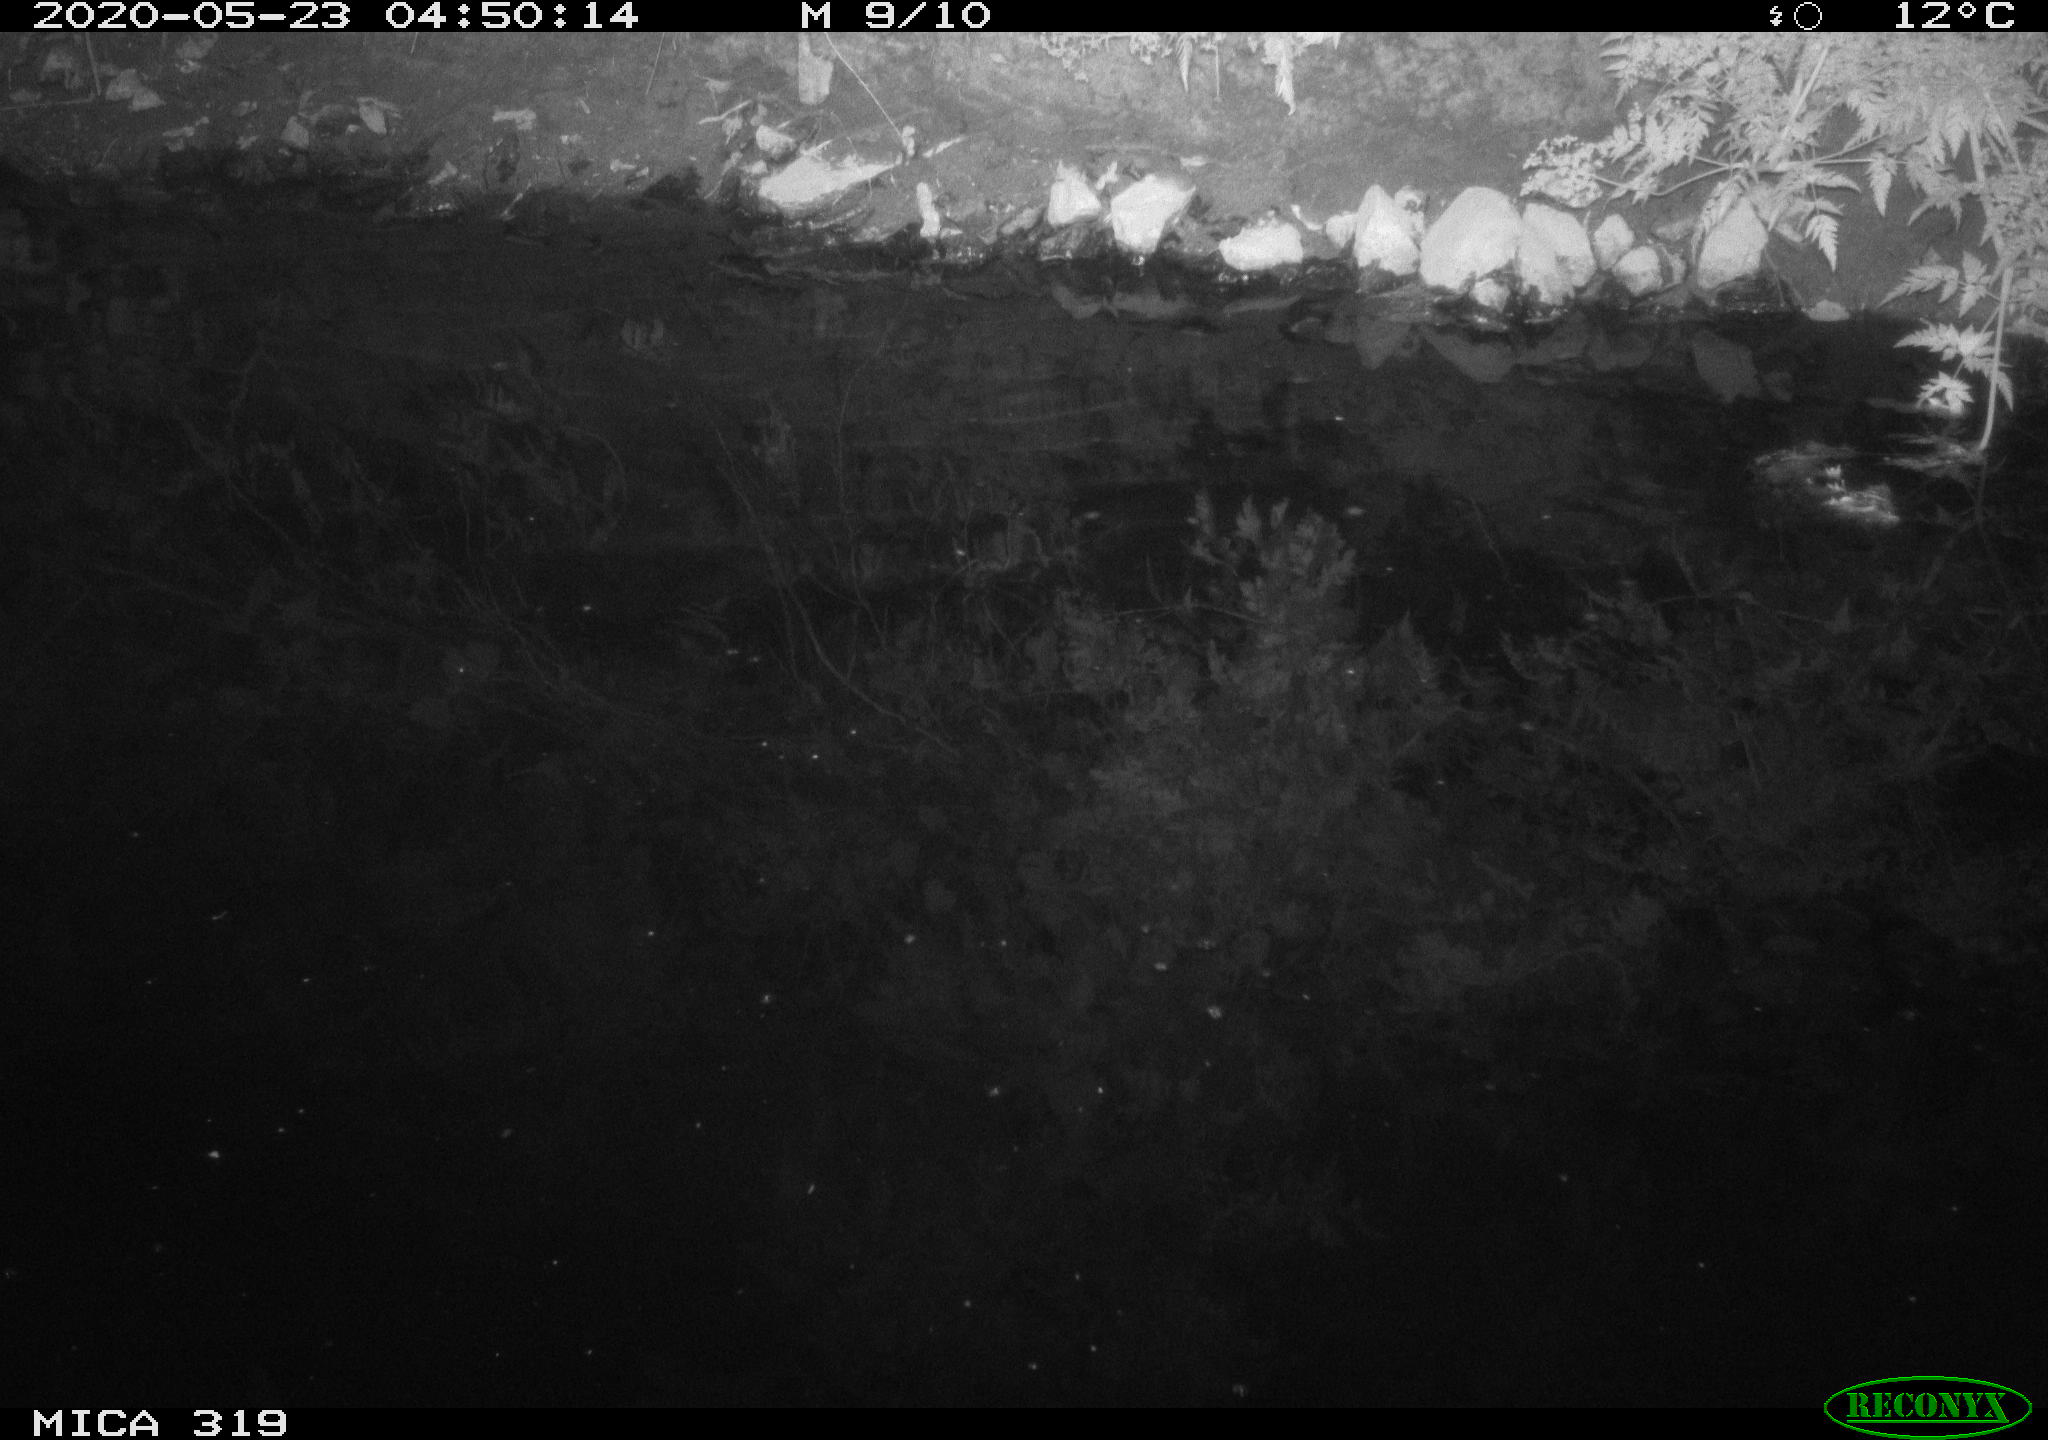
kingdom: Animalia
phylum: Chordata
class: Aves
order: Anseriformes
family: Anatidae
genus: Anas
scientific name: Anas platyrhynchos
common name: Mallard
